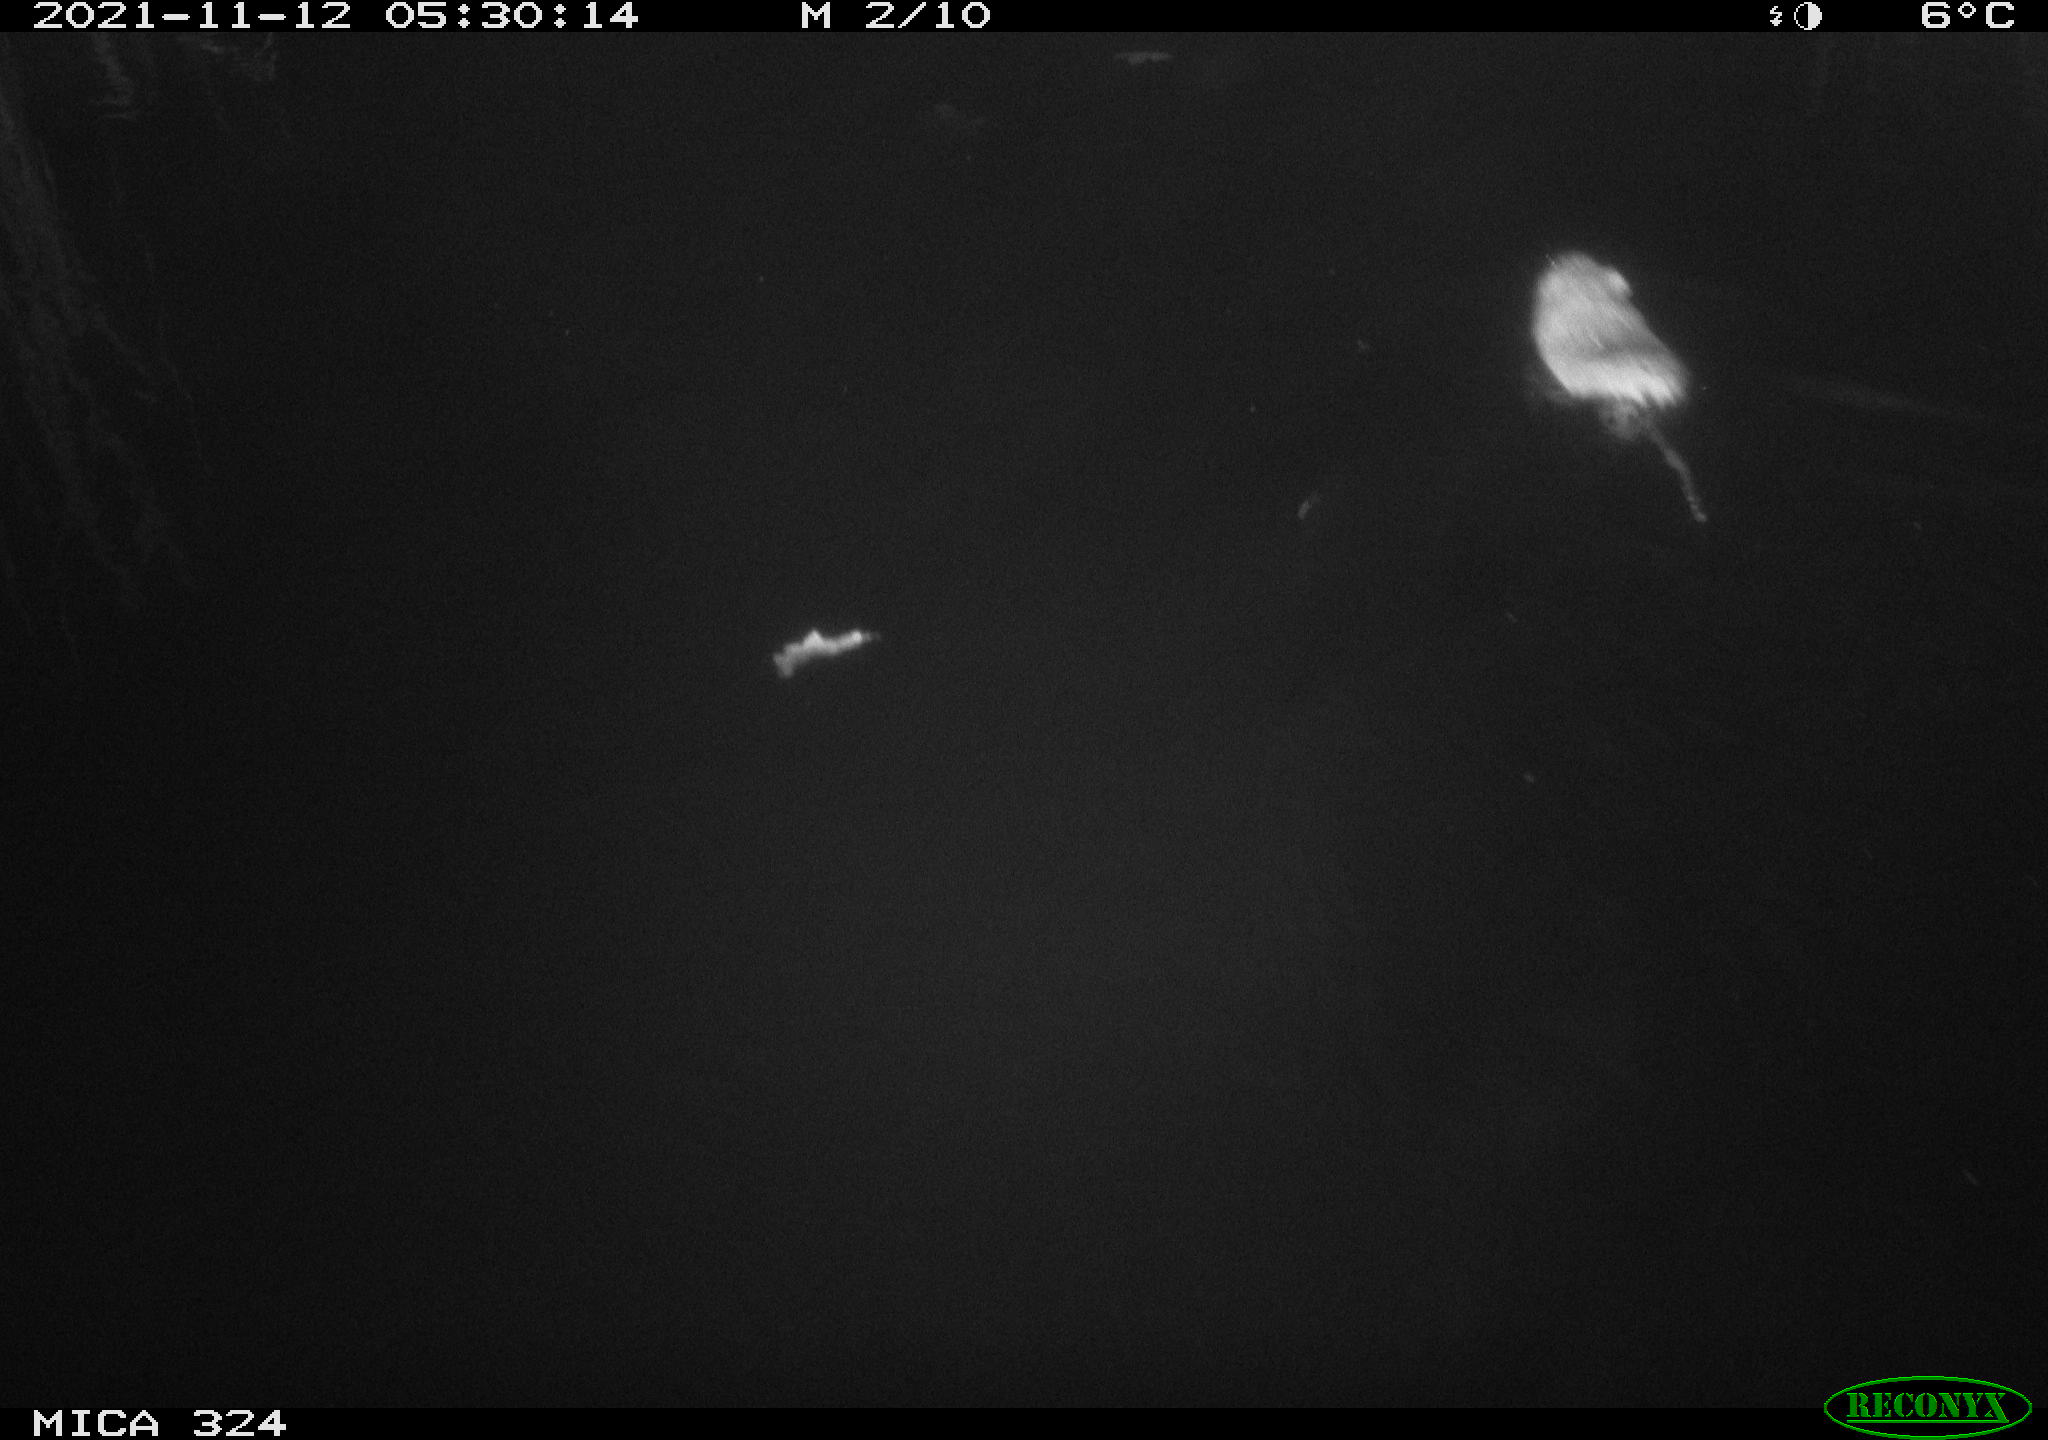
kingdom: Animalia
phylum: Chordata
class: Mammalia
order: Rodentia
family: Cricetidae
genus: Ondatra
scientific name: Ondatra zibethicus
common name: Muskrat
